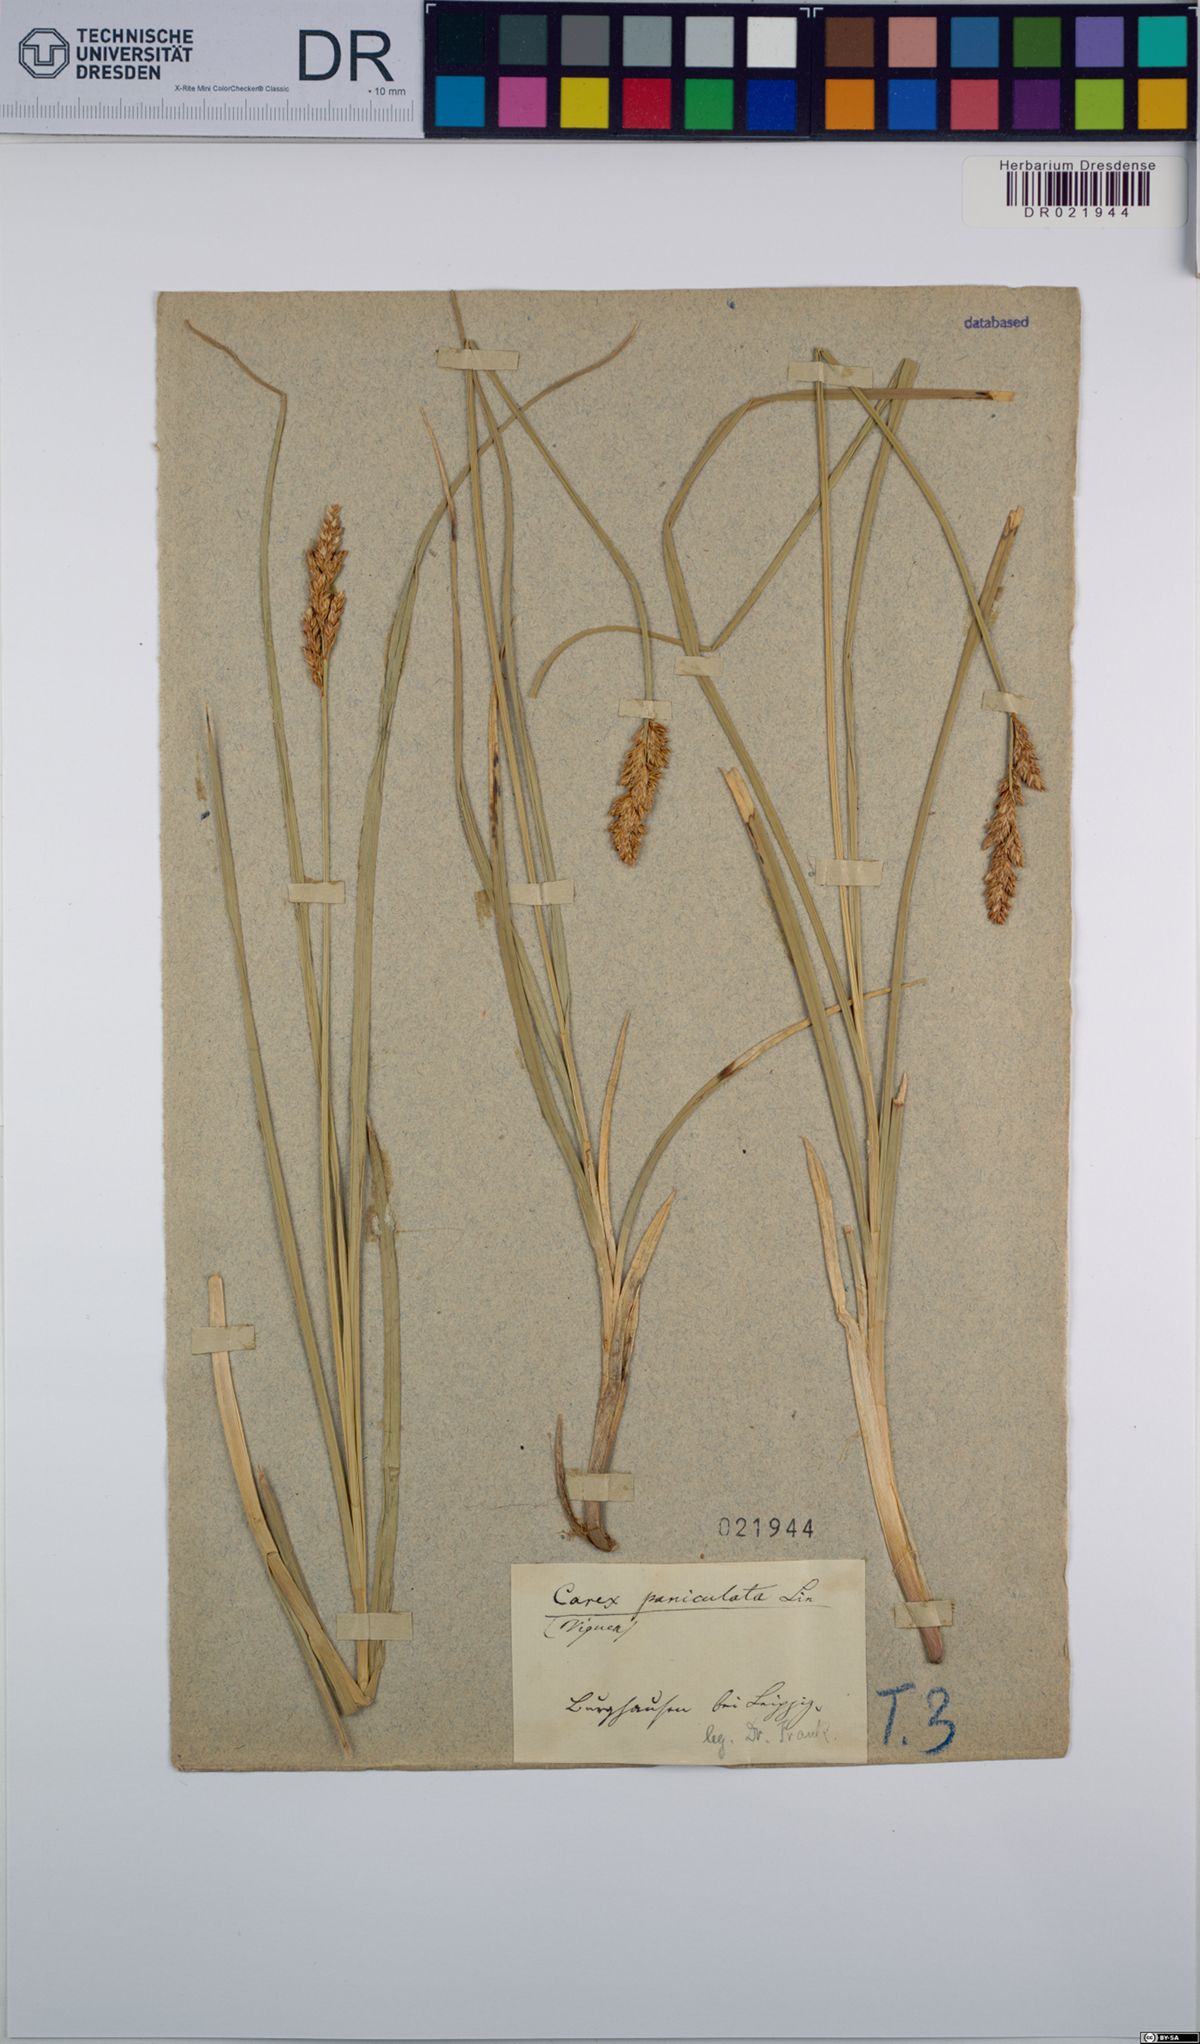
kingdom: Plantae
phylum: Tracheophyta
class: Liliopsida
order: Poales
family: Cyperaceae
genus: Carex
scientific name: Carex paniculata
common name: Greater tussock-sedge
